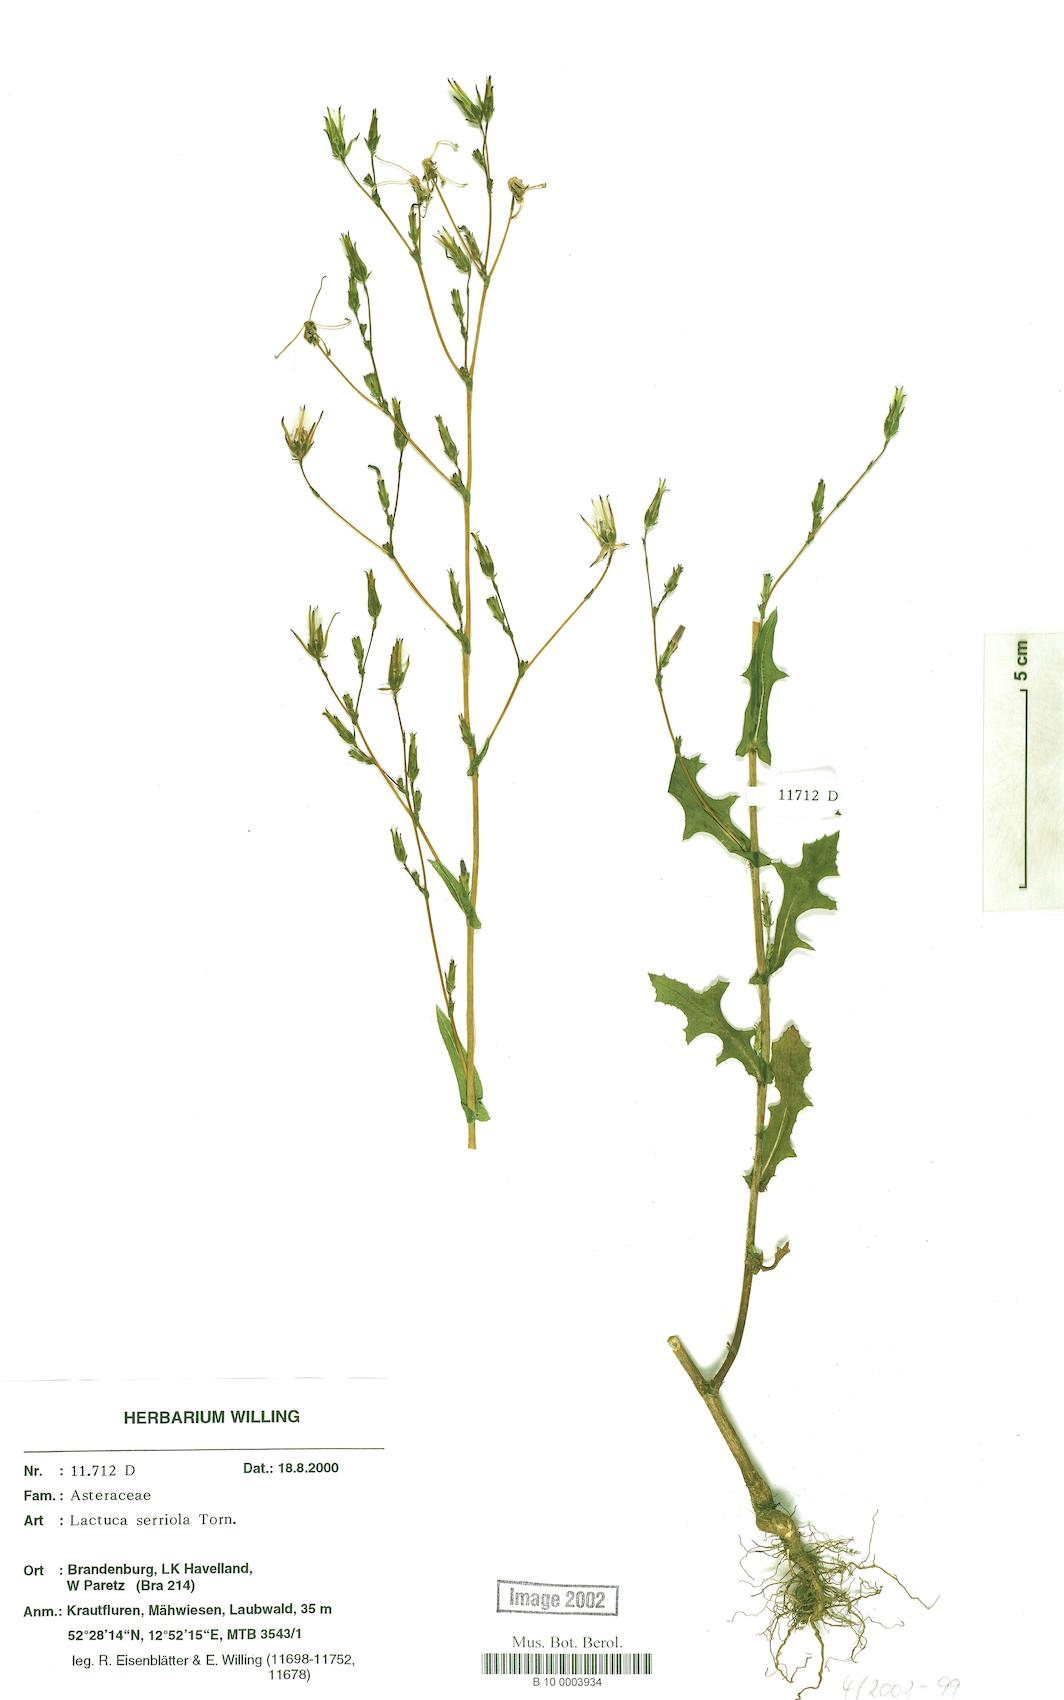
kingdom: Plantae
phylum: Tracheophyta
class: Magnoliopsida
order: Asterales
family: Asteraceae
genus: Lactuca
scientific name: Lactuca serriola
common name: Prickly lettuce
